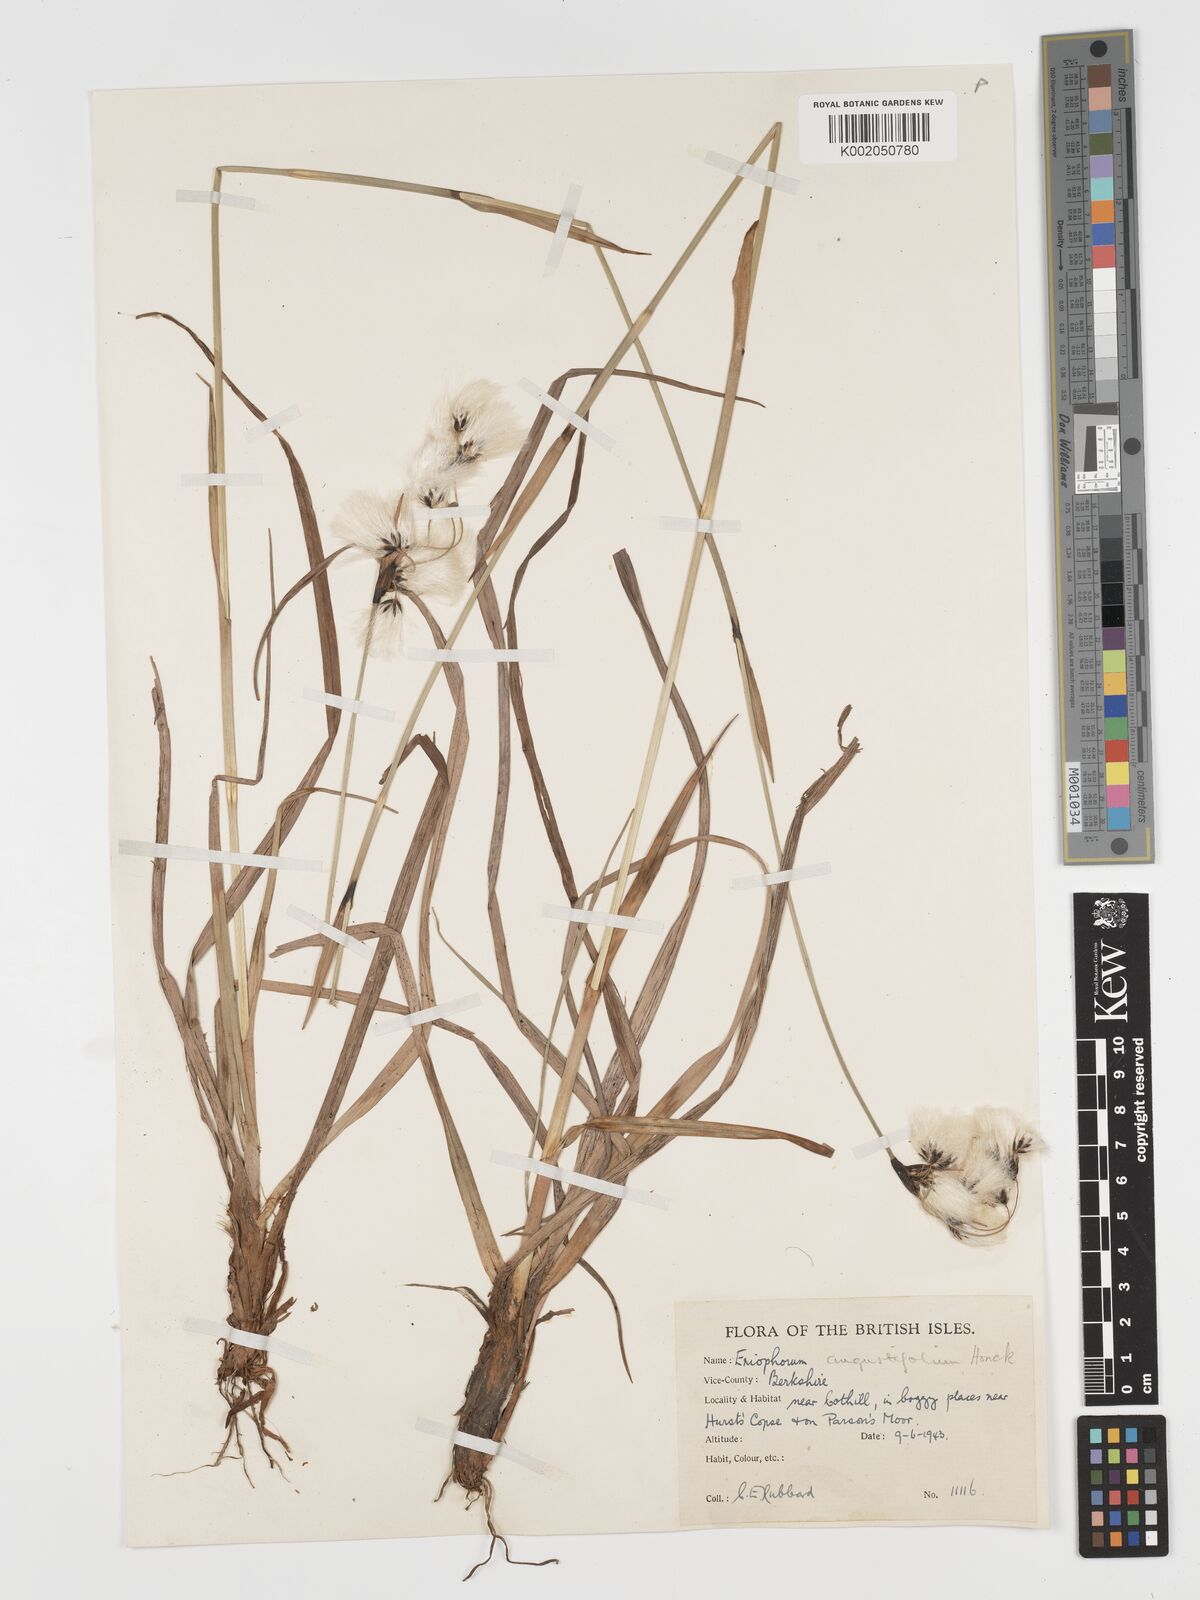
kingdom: Plantae
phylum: Tracheophyta
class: Liliopsida
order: Poales
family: Cyperaceae
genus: Eriophorum
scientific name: Eriophorum angustifolium
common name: Common cottongrass
